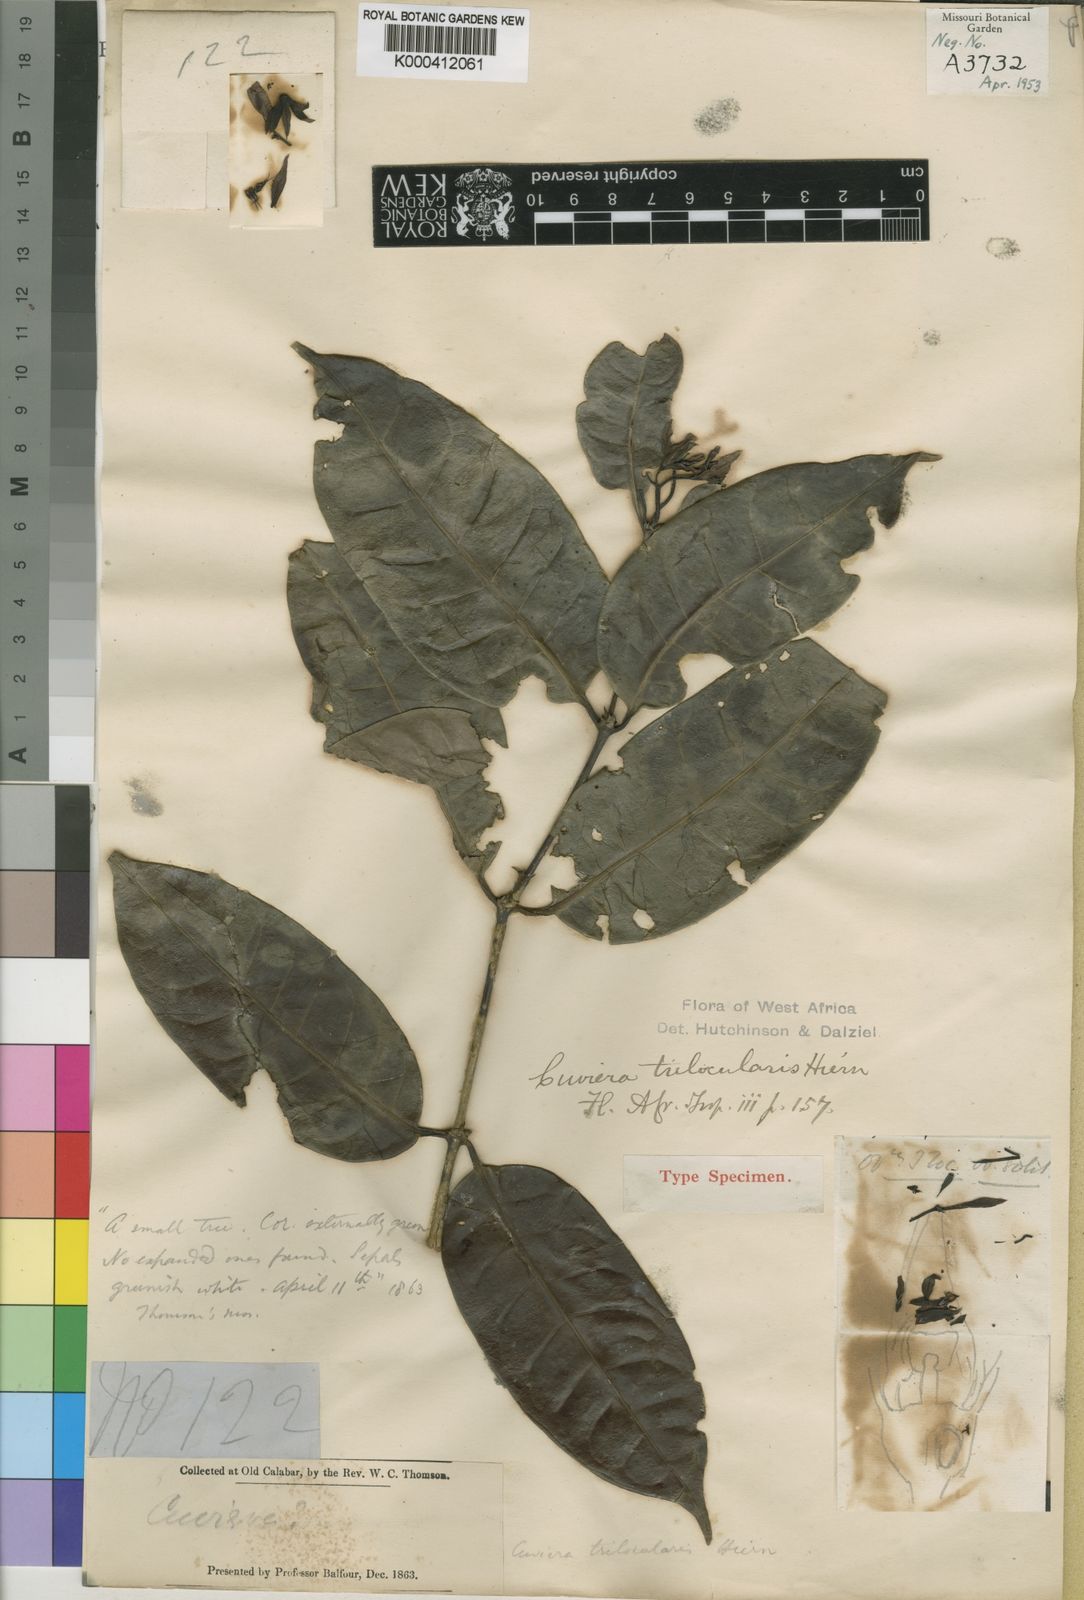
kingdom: Plantae
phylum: Tracheophyta
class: Magnoliopsida
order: Gentianales
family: Rubiaceae
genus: Cuviera
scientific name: Cuviera trilocularis
